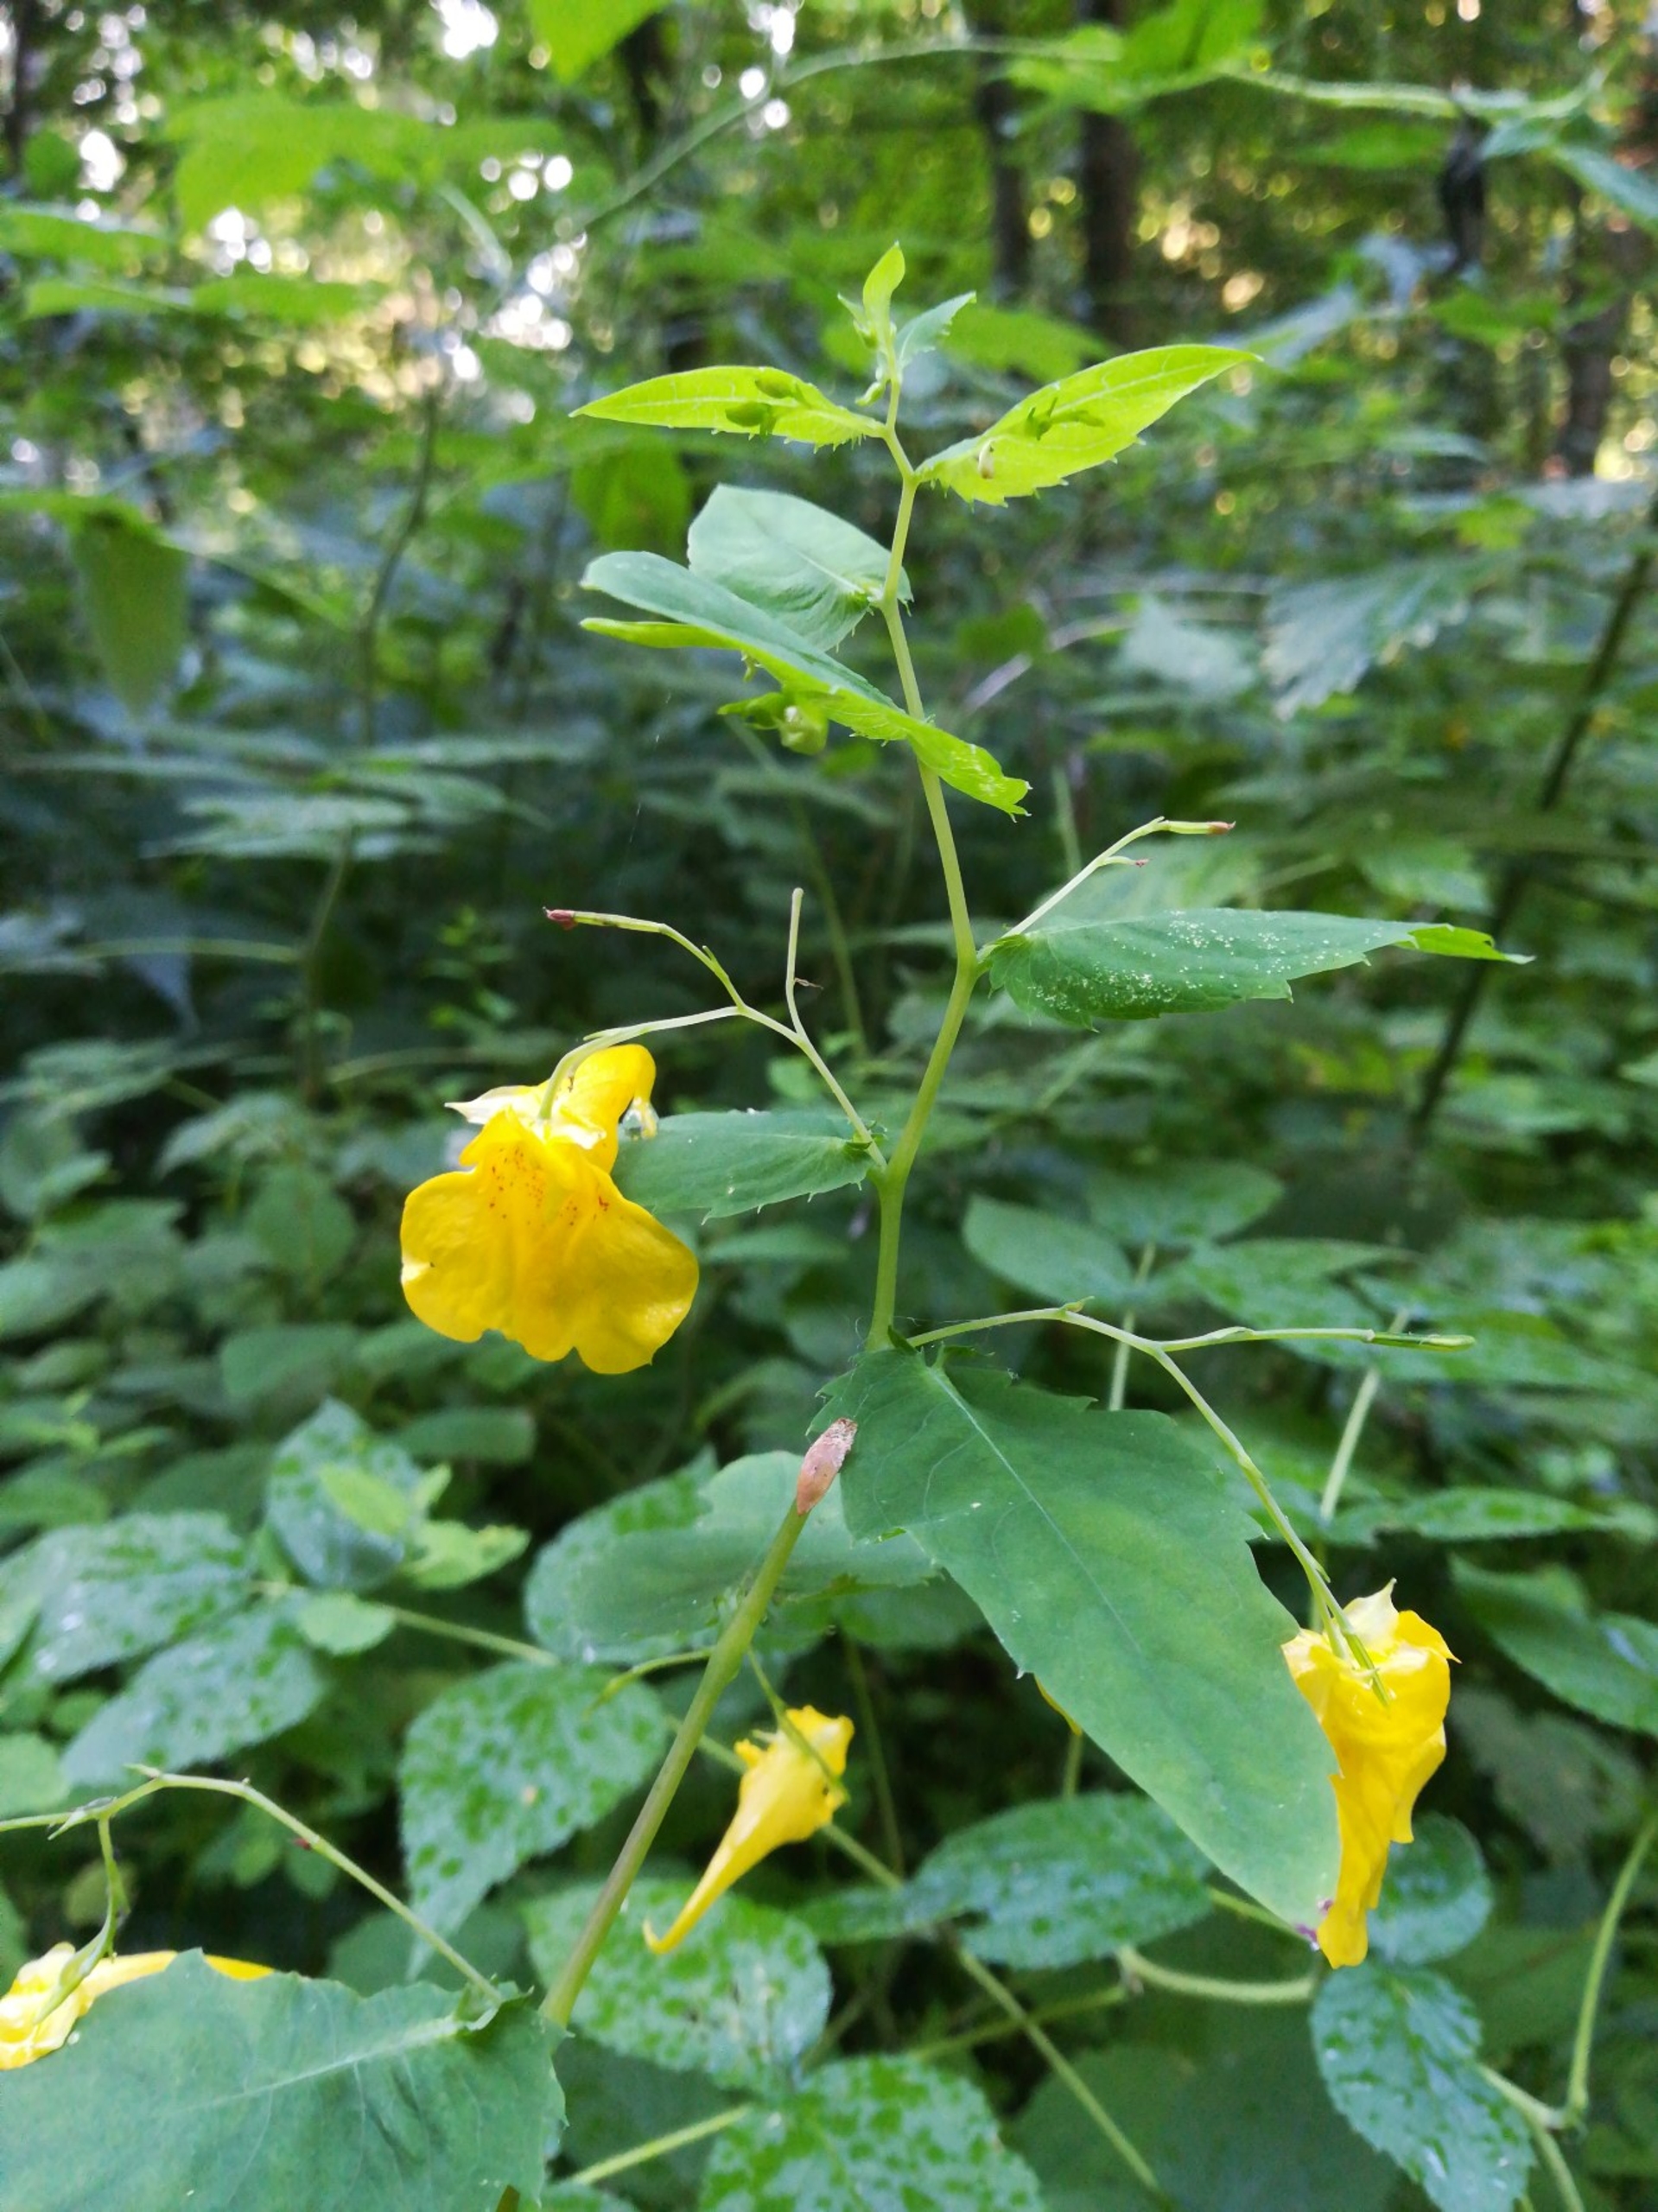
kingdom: Plantae
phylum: Tracheophyta
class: Magnoliopsida
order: Ericales
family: Balsaminaceae
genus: Impatiens
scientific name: Impatiens noli-tangere
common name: Spring-balsamin
